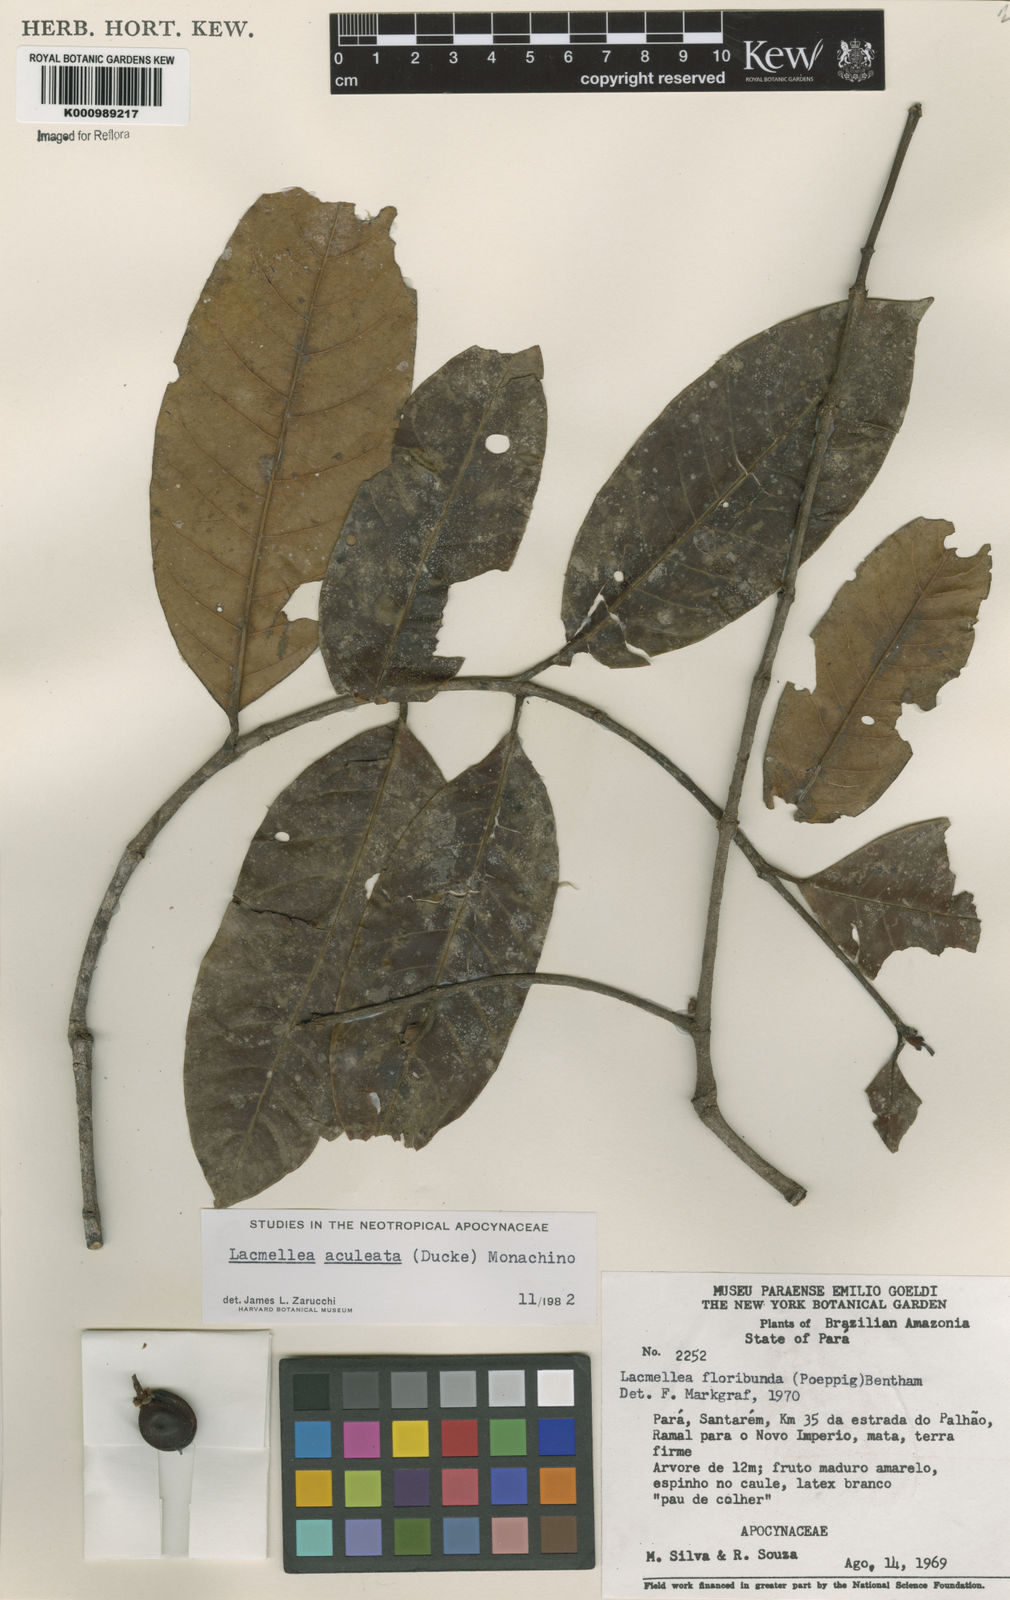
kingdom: Plantae
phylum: Tracheophyta
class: Magnoliopsida
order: Gentianales
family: Apocynaceae
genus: Lacmellea
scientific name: Lacmellea floribunda
